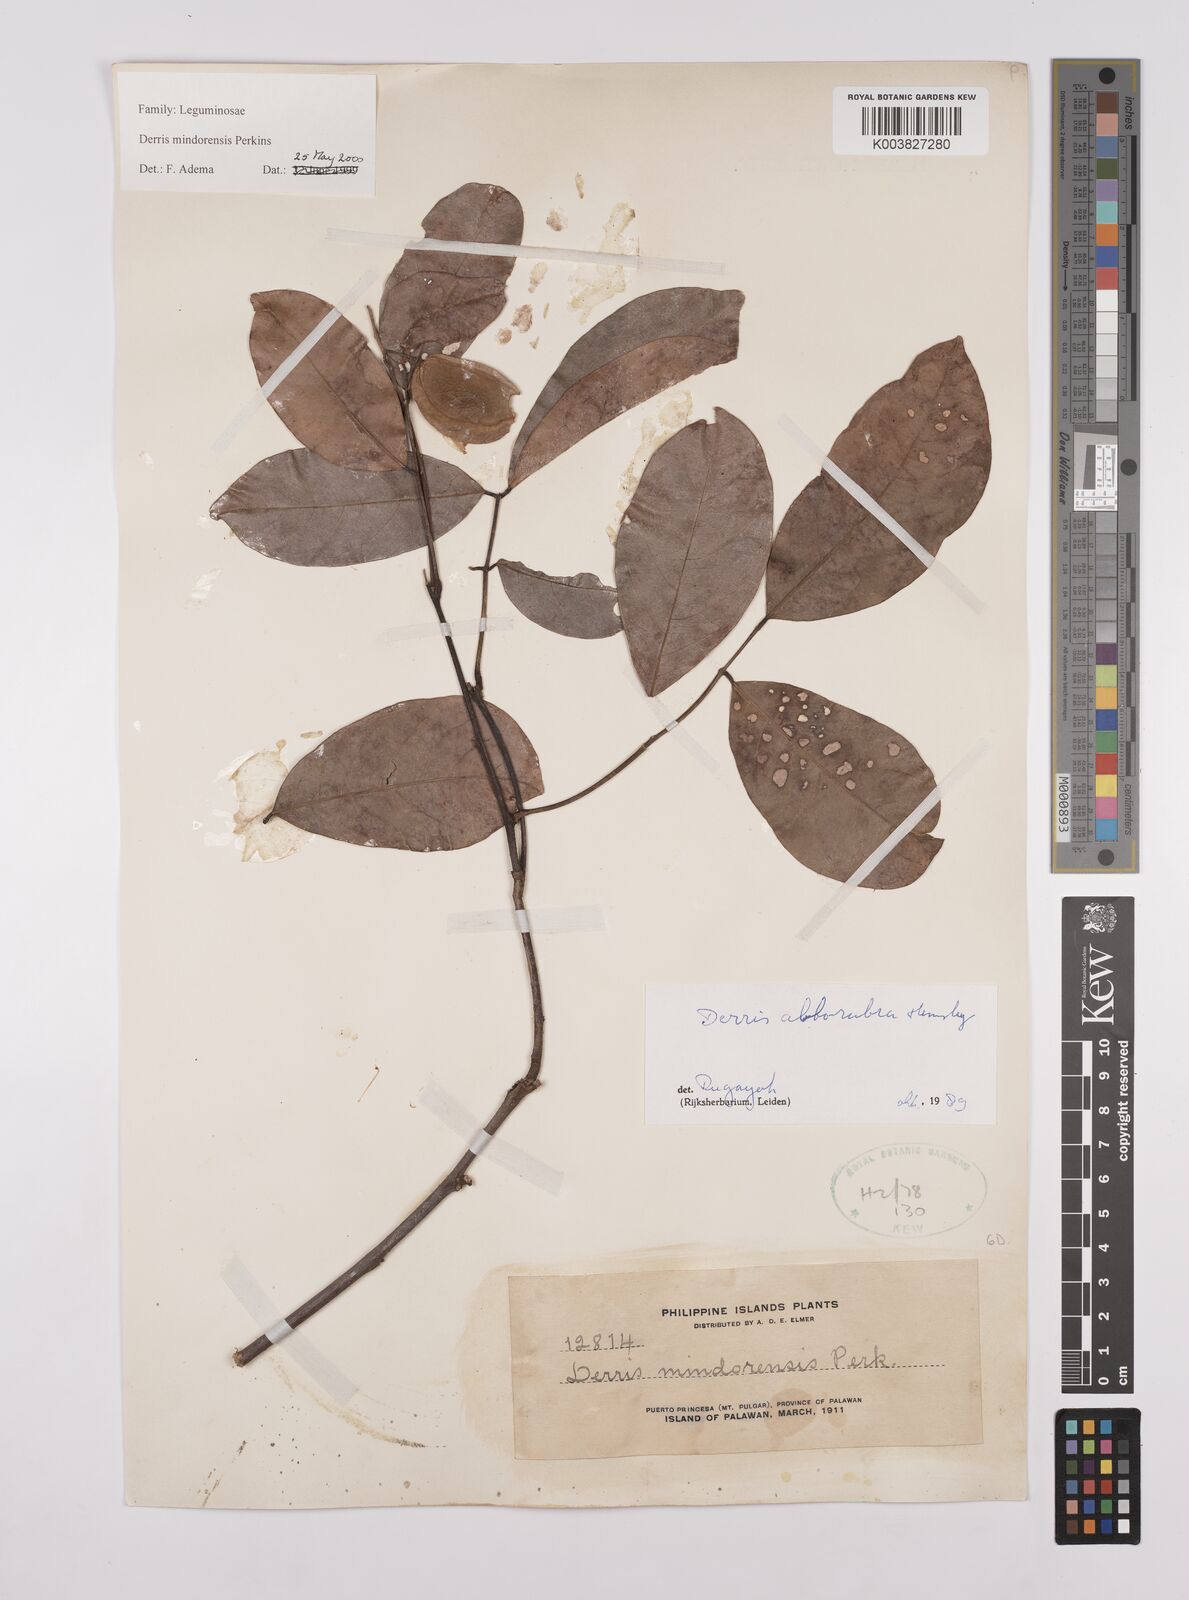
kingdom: Plantae
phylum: Tracheophyta
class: Magnoliopsida
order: Fabales
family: Fabaceae
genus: Derris
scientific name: Derris pubipetala
